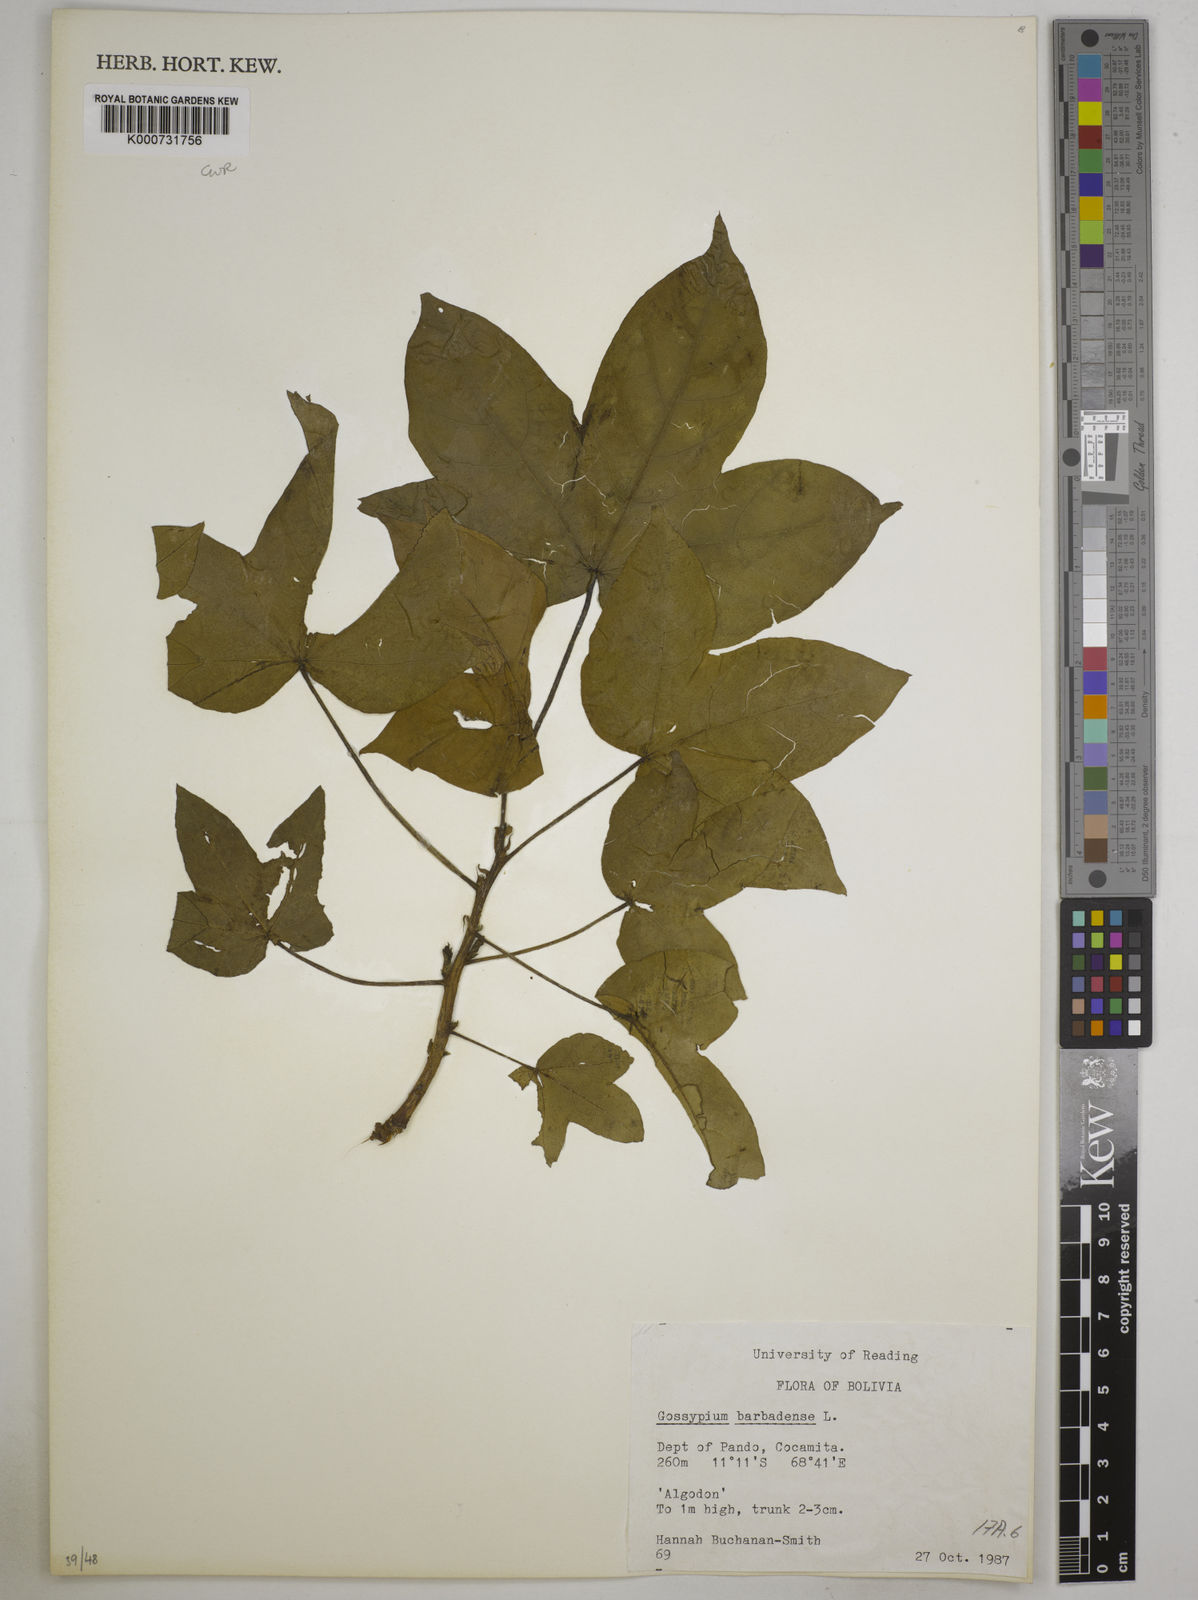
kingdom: Plantae
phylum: Tracheophyta
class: Magnoliopsida
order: Malvales
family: Malvaceae
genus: Gossypium
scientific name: Gossypium barbadense
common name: Creole cotton
